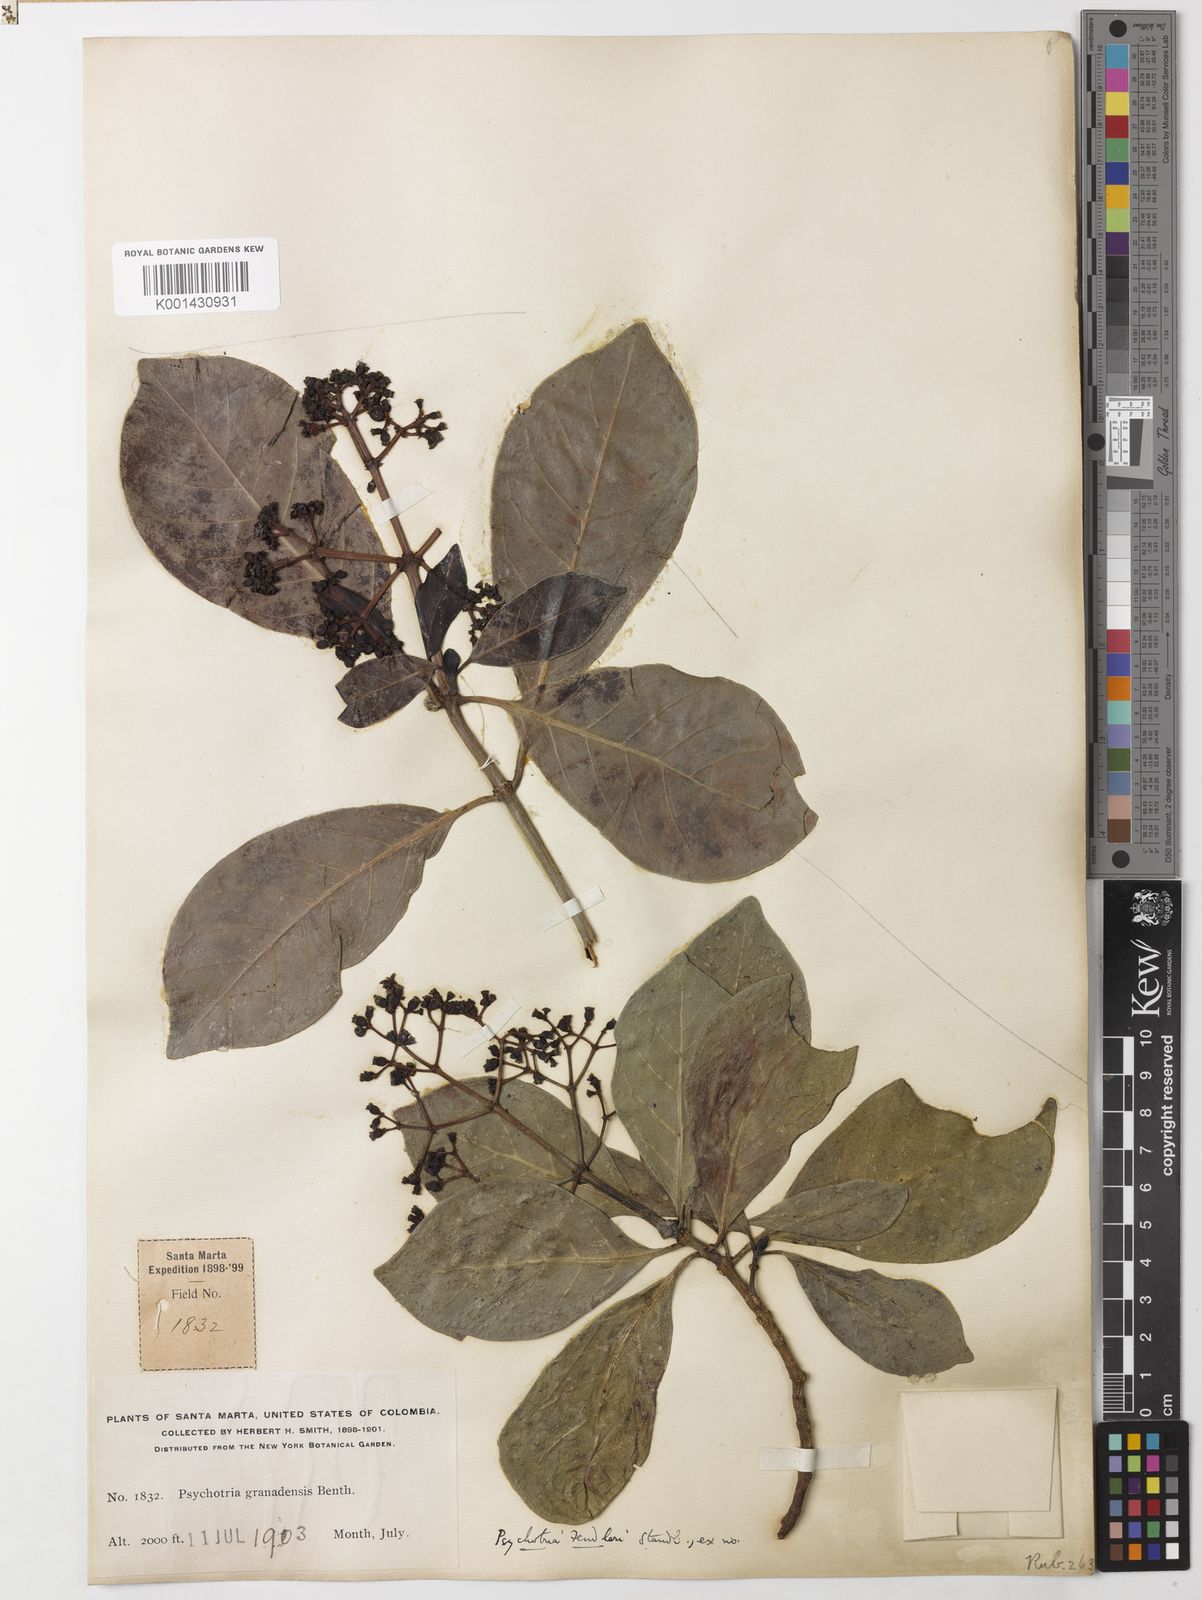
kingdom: Plantae
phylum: Tracheophyta
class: Magnoliopsida
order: Gentianales
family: Rubiaceae
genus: Psychotria
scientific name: Psychotria fendleri
